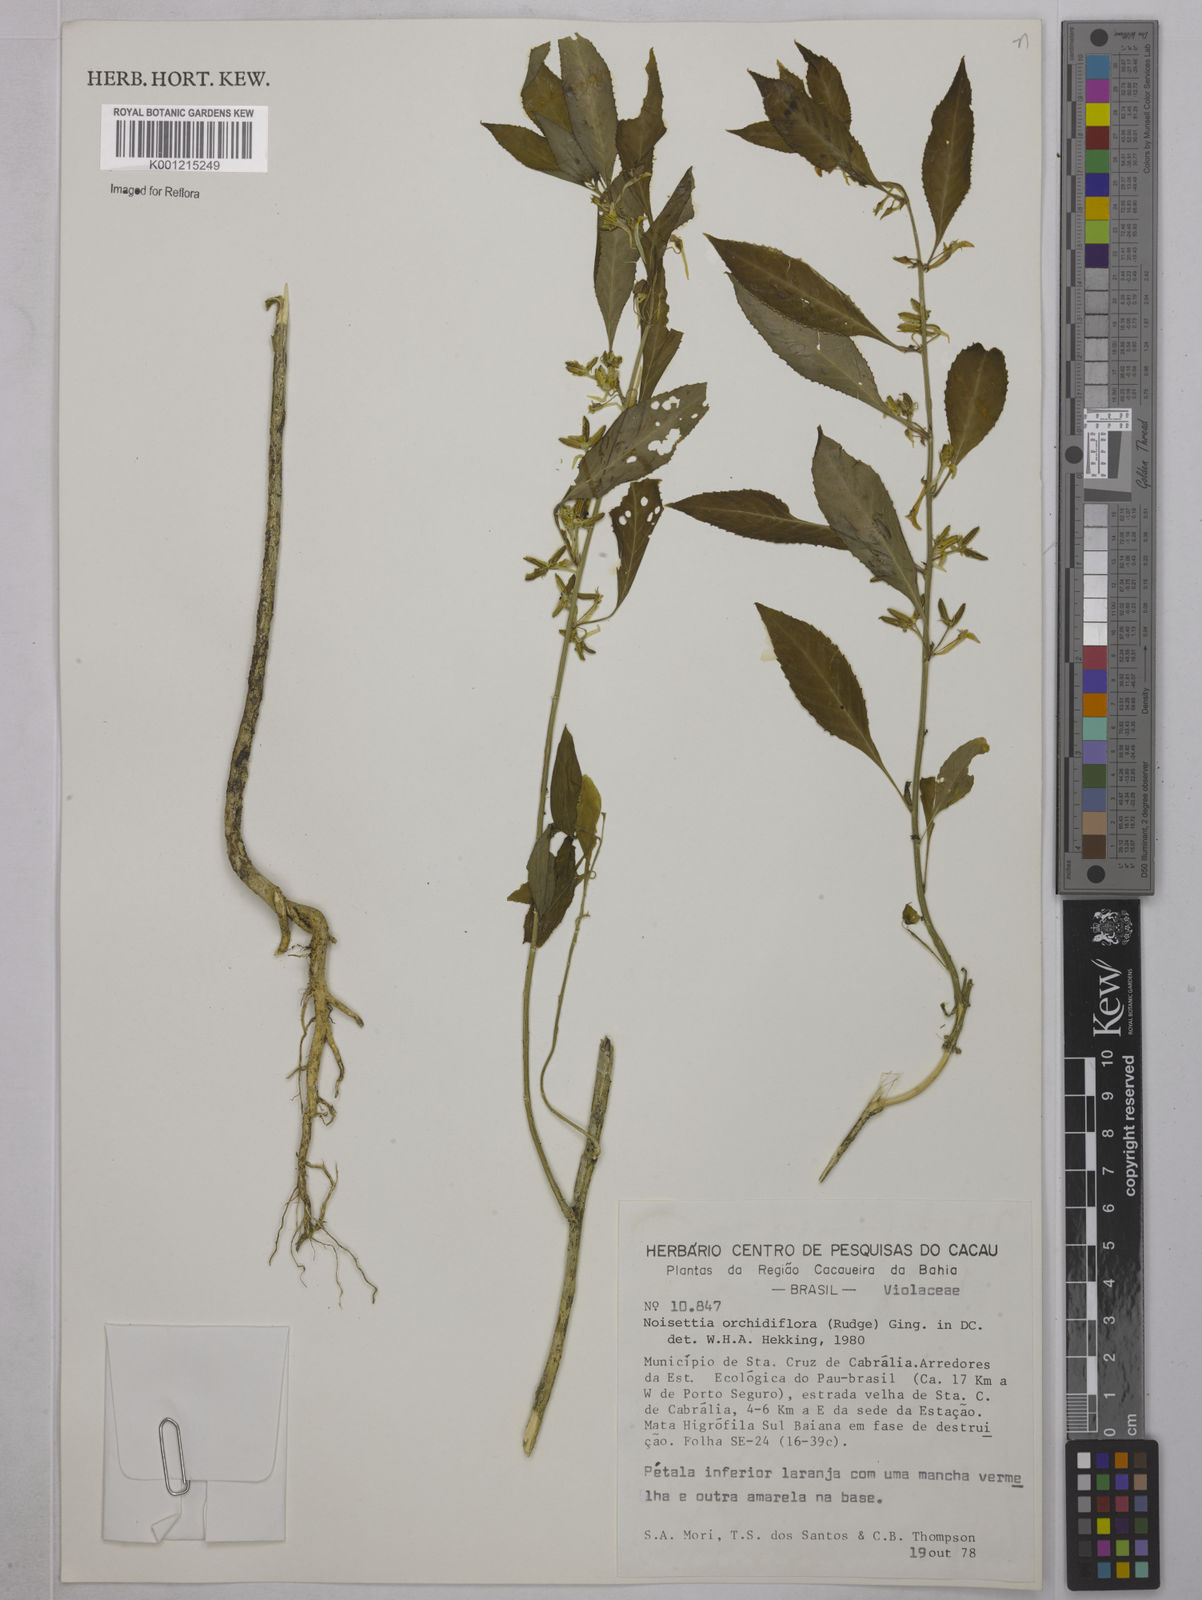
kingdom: Plantae
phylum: Tracheophyta
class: Magnoliopsida
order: Malpighiales
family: Violaceae
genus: Noisettia
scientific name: Noisettia orchidiflora
